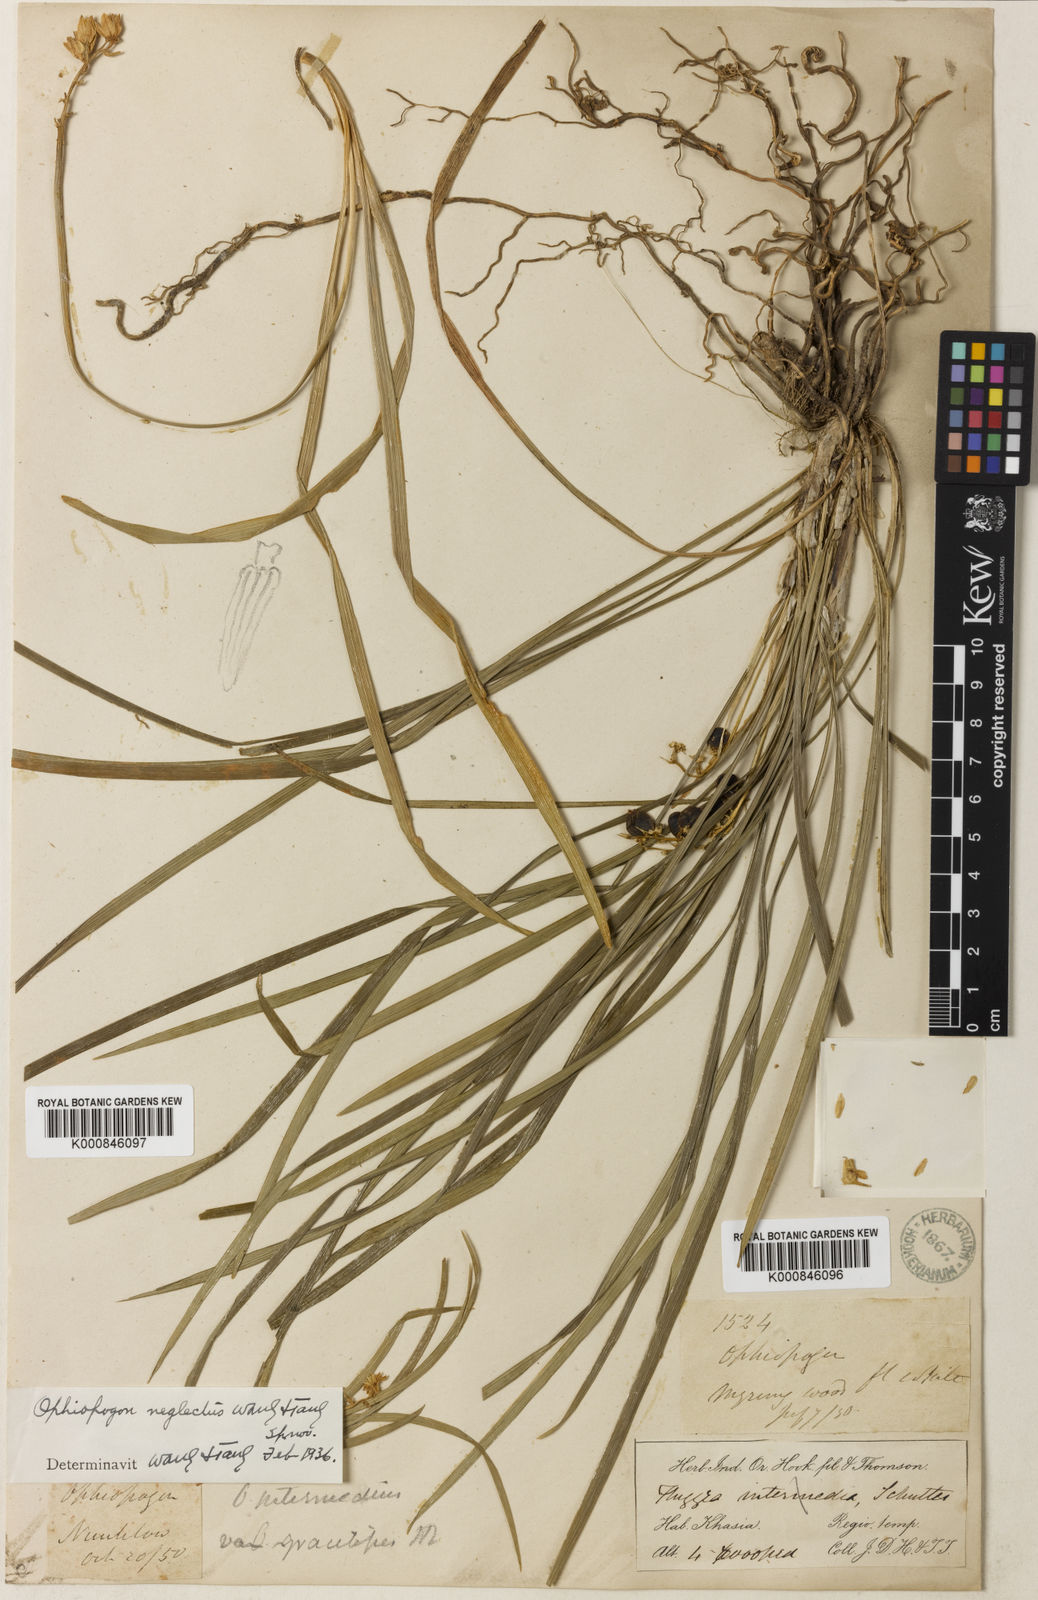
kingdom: Plantae
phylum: Tracheophyta
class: Liliopsida
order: Asparagales
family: Asparagaceae
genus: Ophiopogon
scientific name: Ophiopogon intermedius
